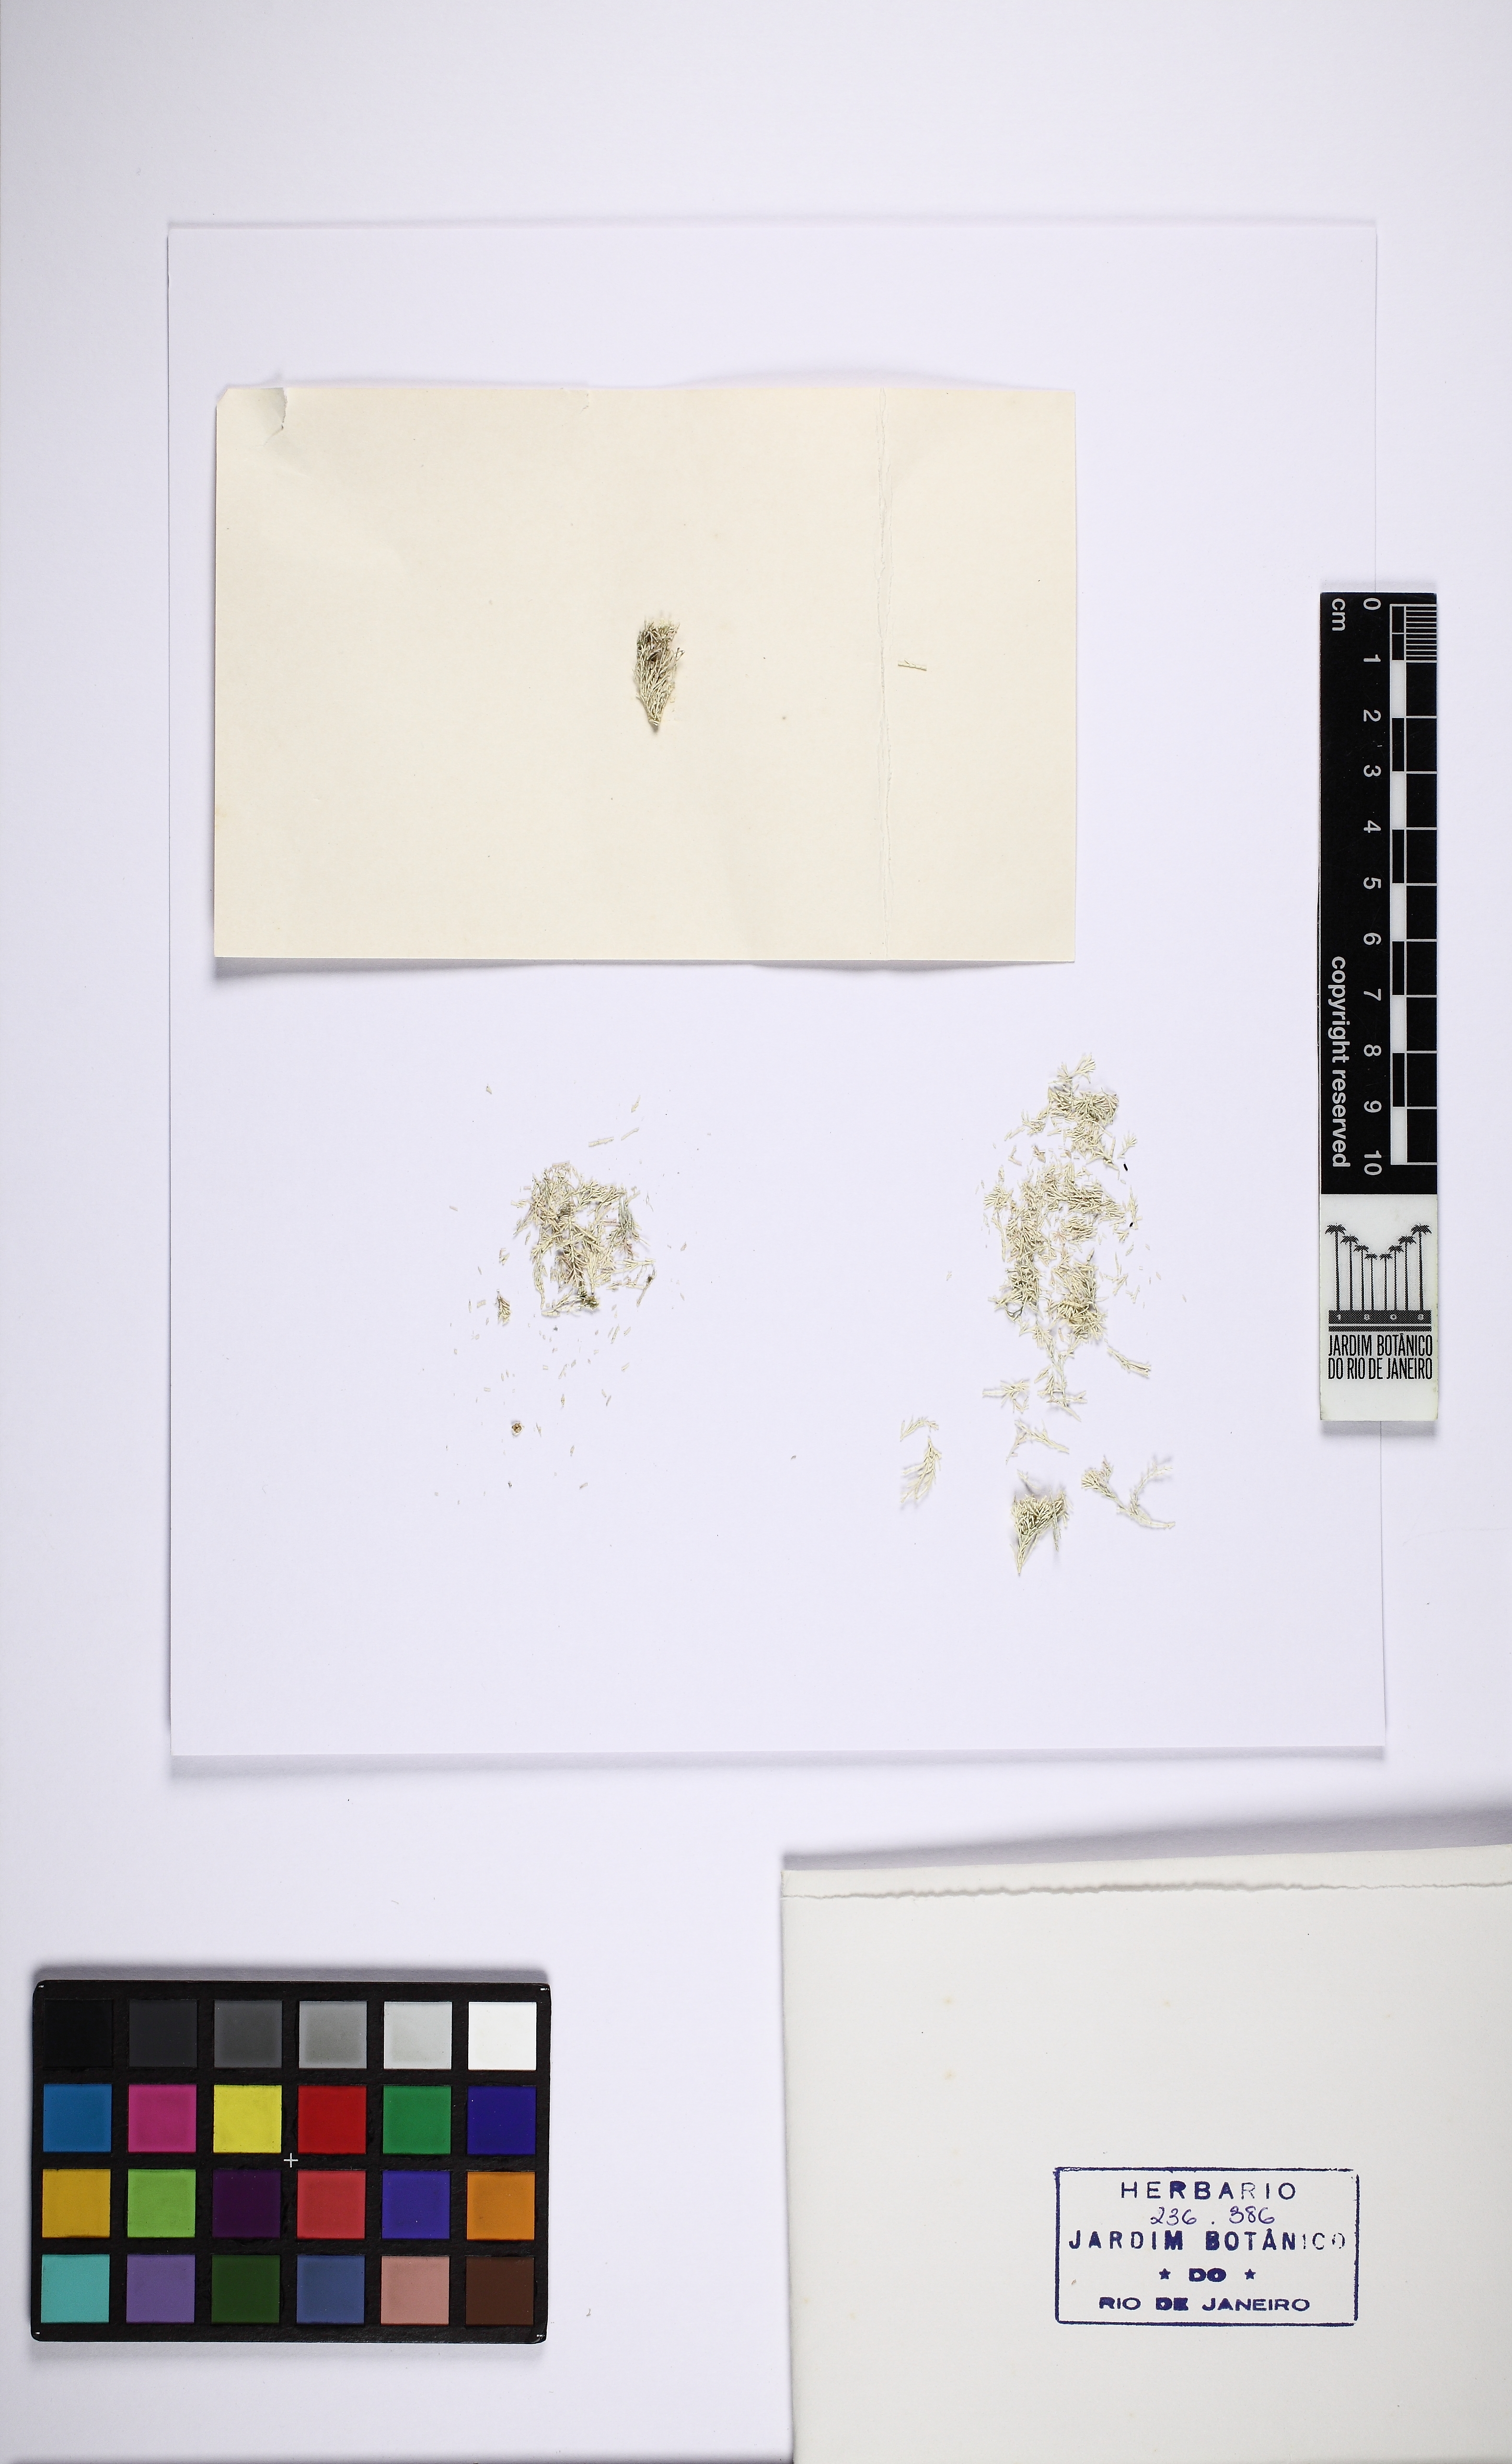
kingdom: Plantae
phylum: Rhodophyta
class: Florideophyceae
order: Corallinales
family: Corallinaceae
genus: Corallina
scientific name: Corallina officinalis
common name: Coral weed
